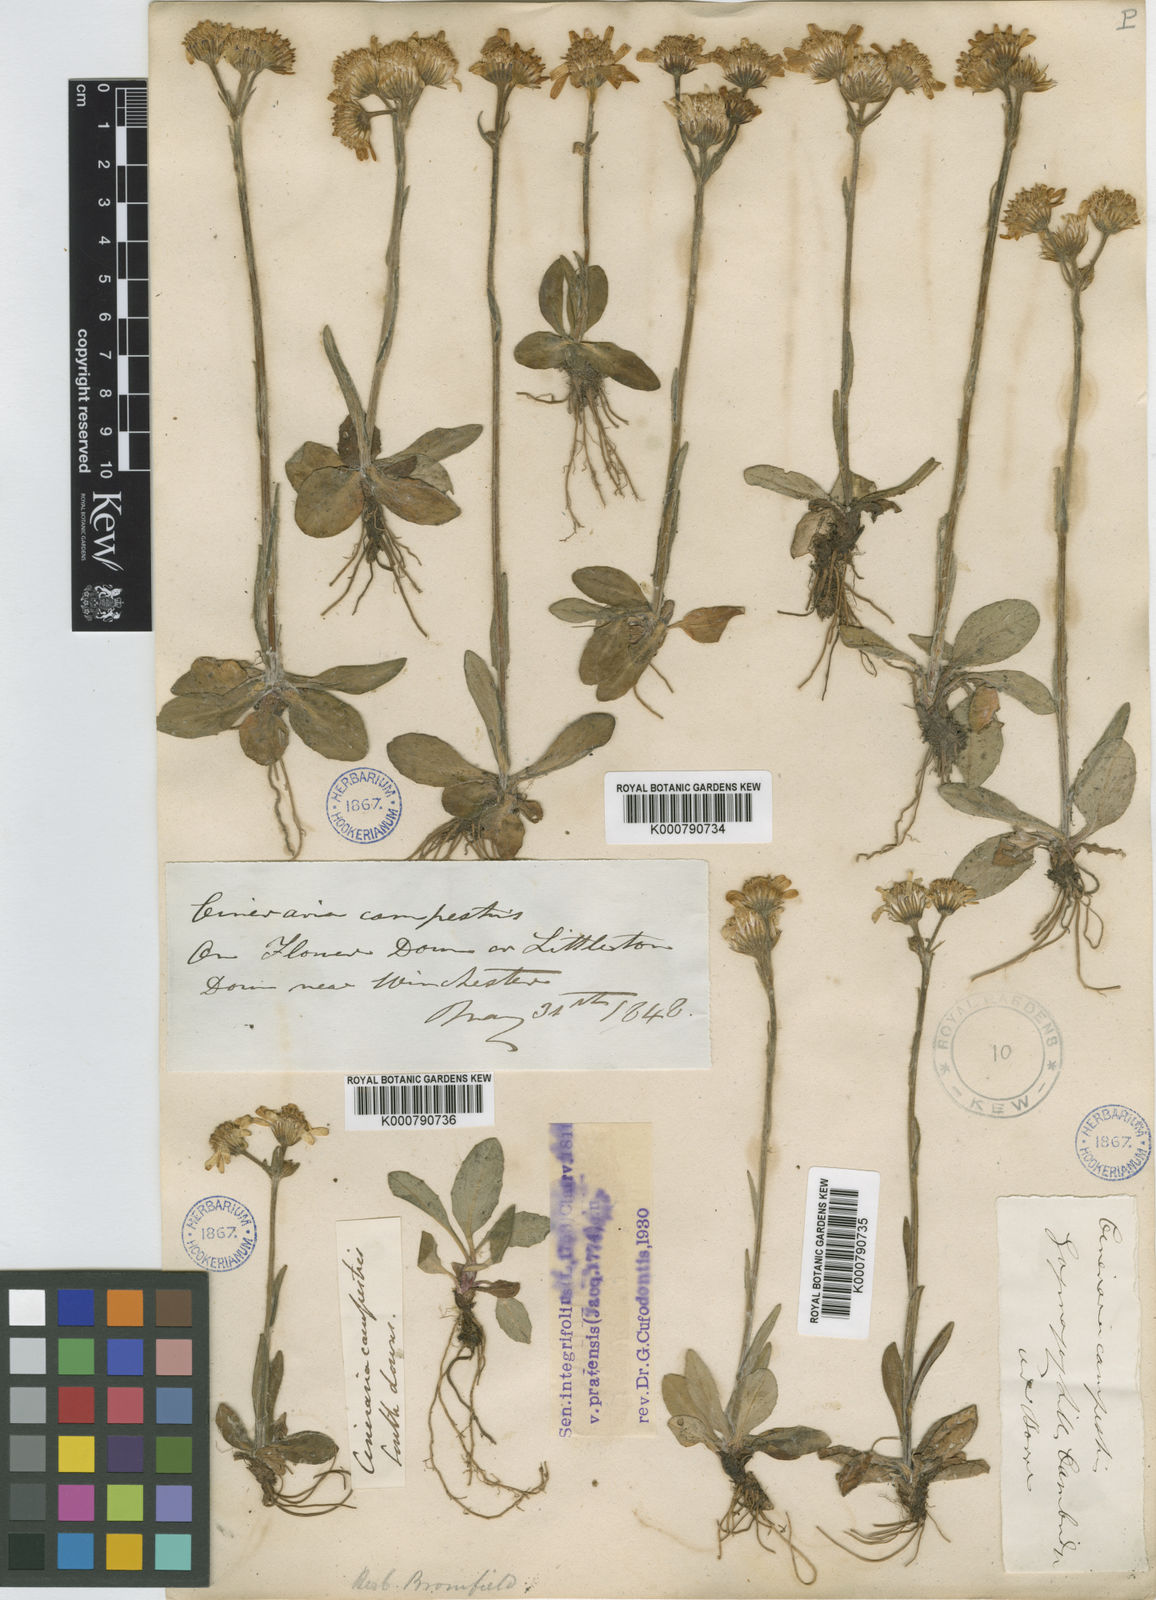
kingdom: Plantae
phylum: Tracheophyta
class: Magnoliopsida
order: Asterales
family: Asteraceae
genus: Tephroseris
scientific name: Tephroseris integrifolia
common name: Field fleawort
